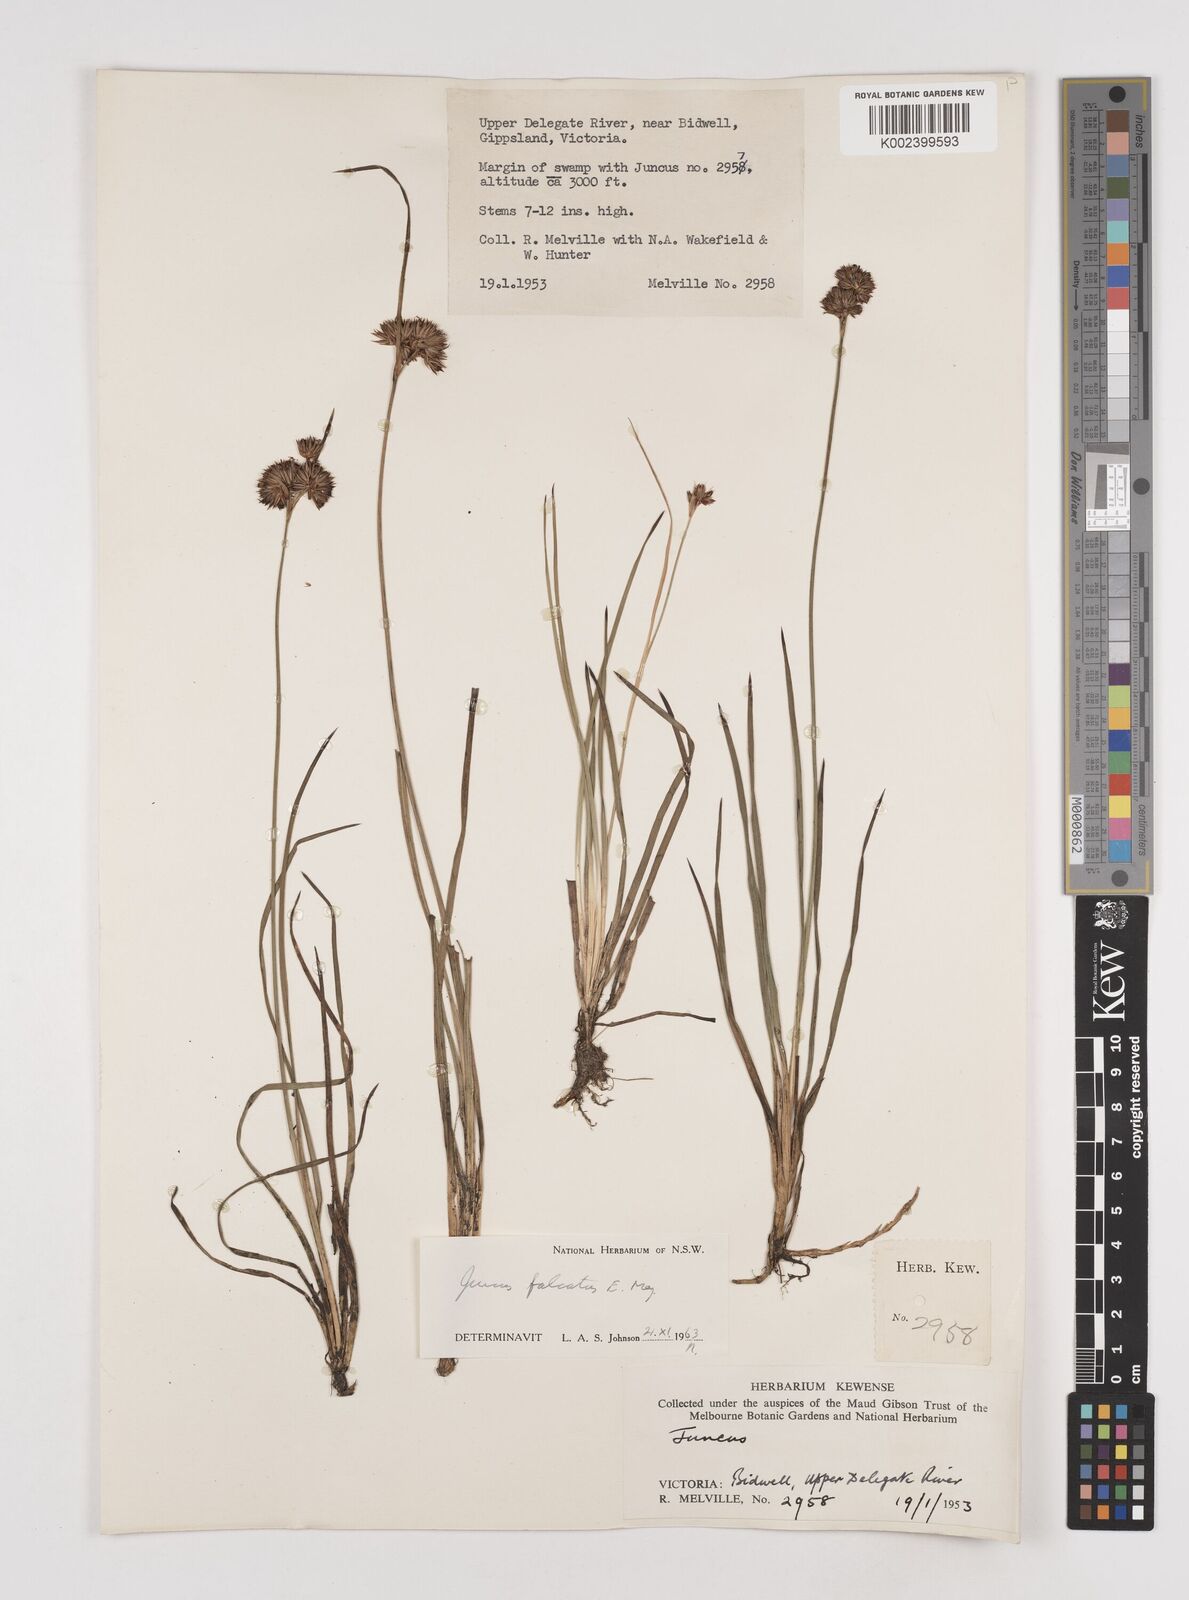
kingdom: Plantae
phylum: Tracheophyta
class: Liliopsida
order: Poales
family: Juncaceae
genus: Juncus
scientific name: Juncus falcatus
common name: Sickle-leaf rush
